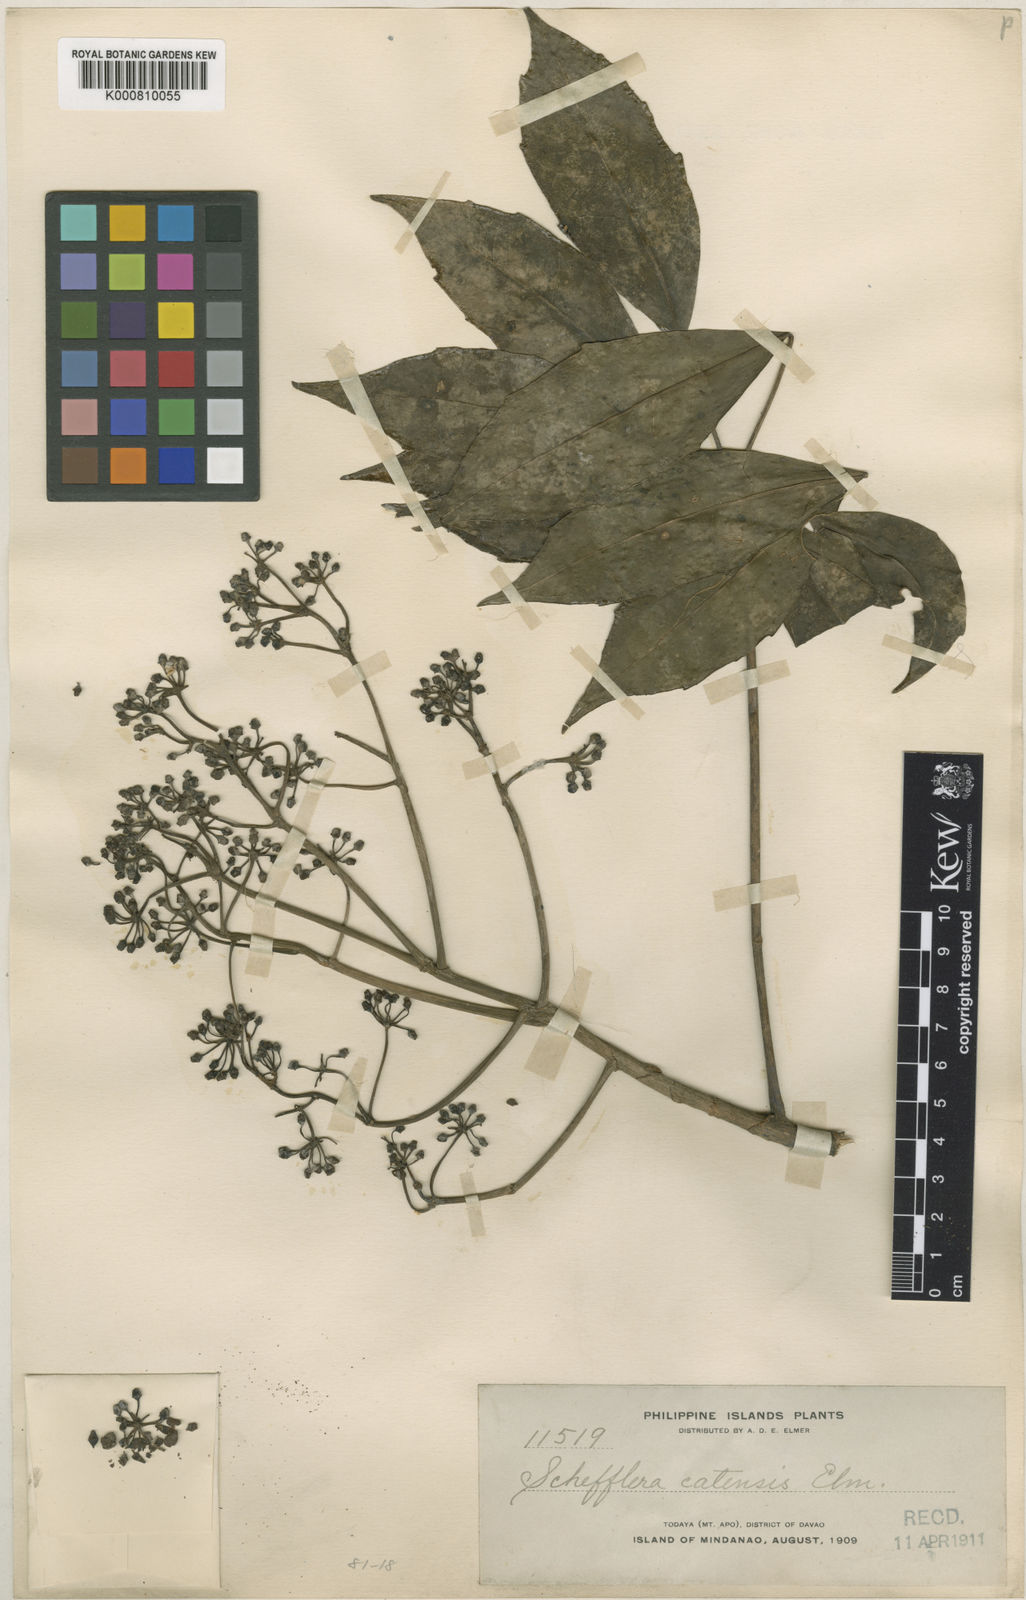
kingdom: Plantae
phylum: Tracheophyta
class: Magnoliopsida
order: Apiales
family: Araliaceae
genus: Heptapleurum
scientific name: Heptapleurum catense
